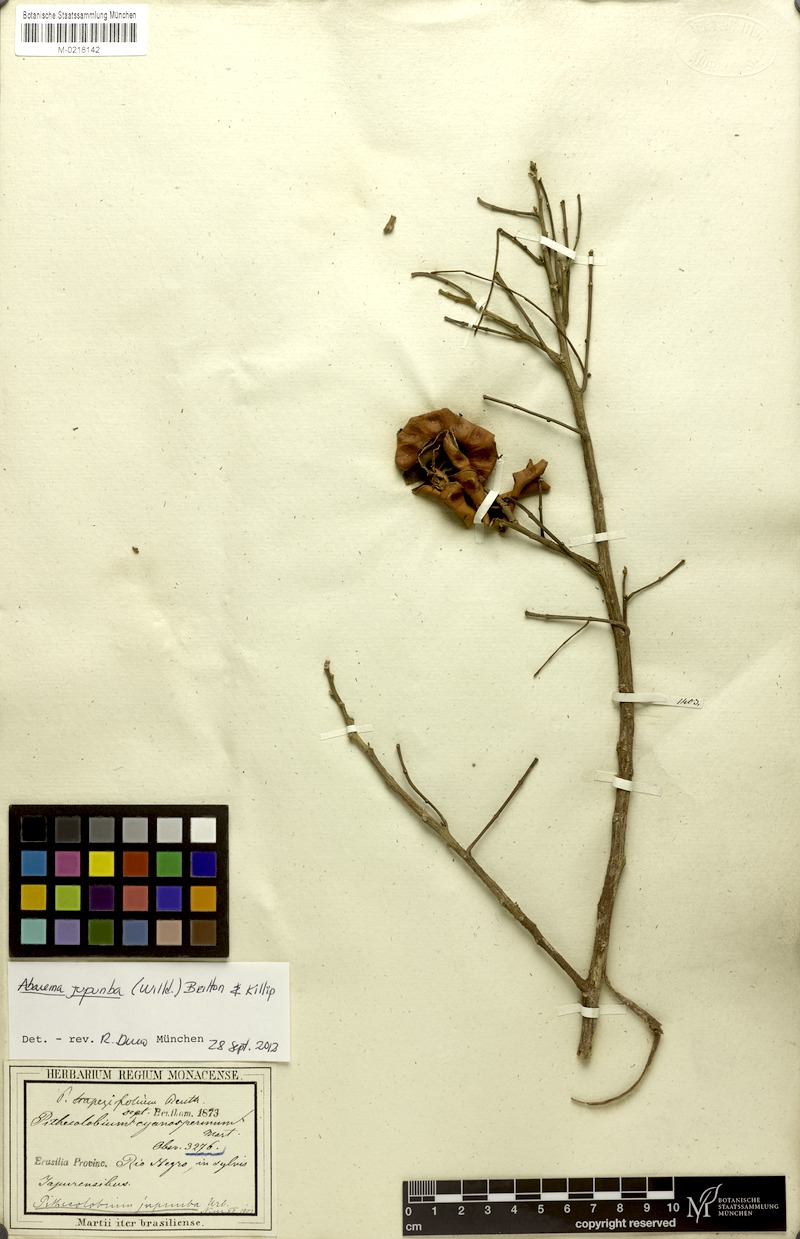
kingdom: Plantae
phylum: Tracheophyta
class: Magnoliopsida
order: Fabales
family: Fabaceae
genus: Jupunba
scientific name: Jupunba trapezifolia
